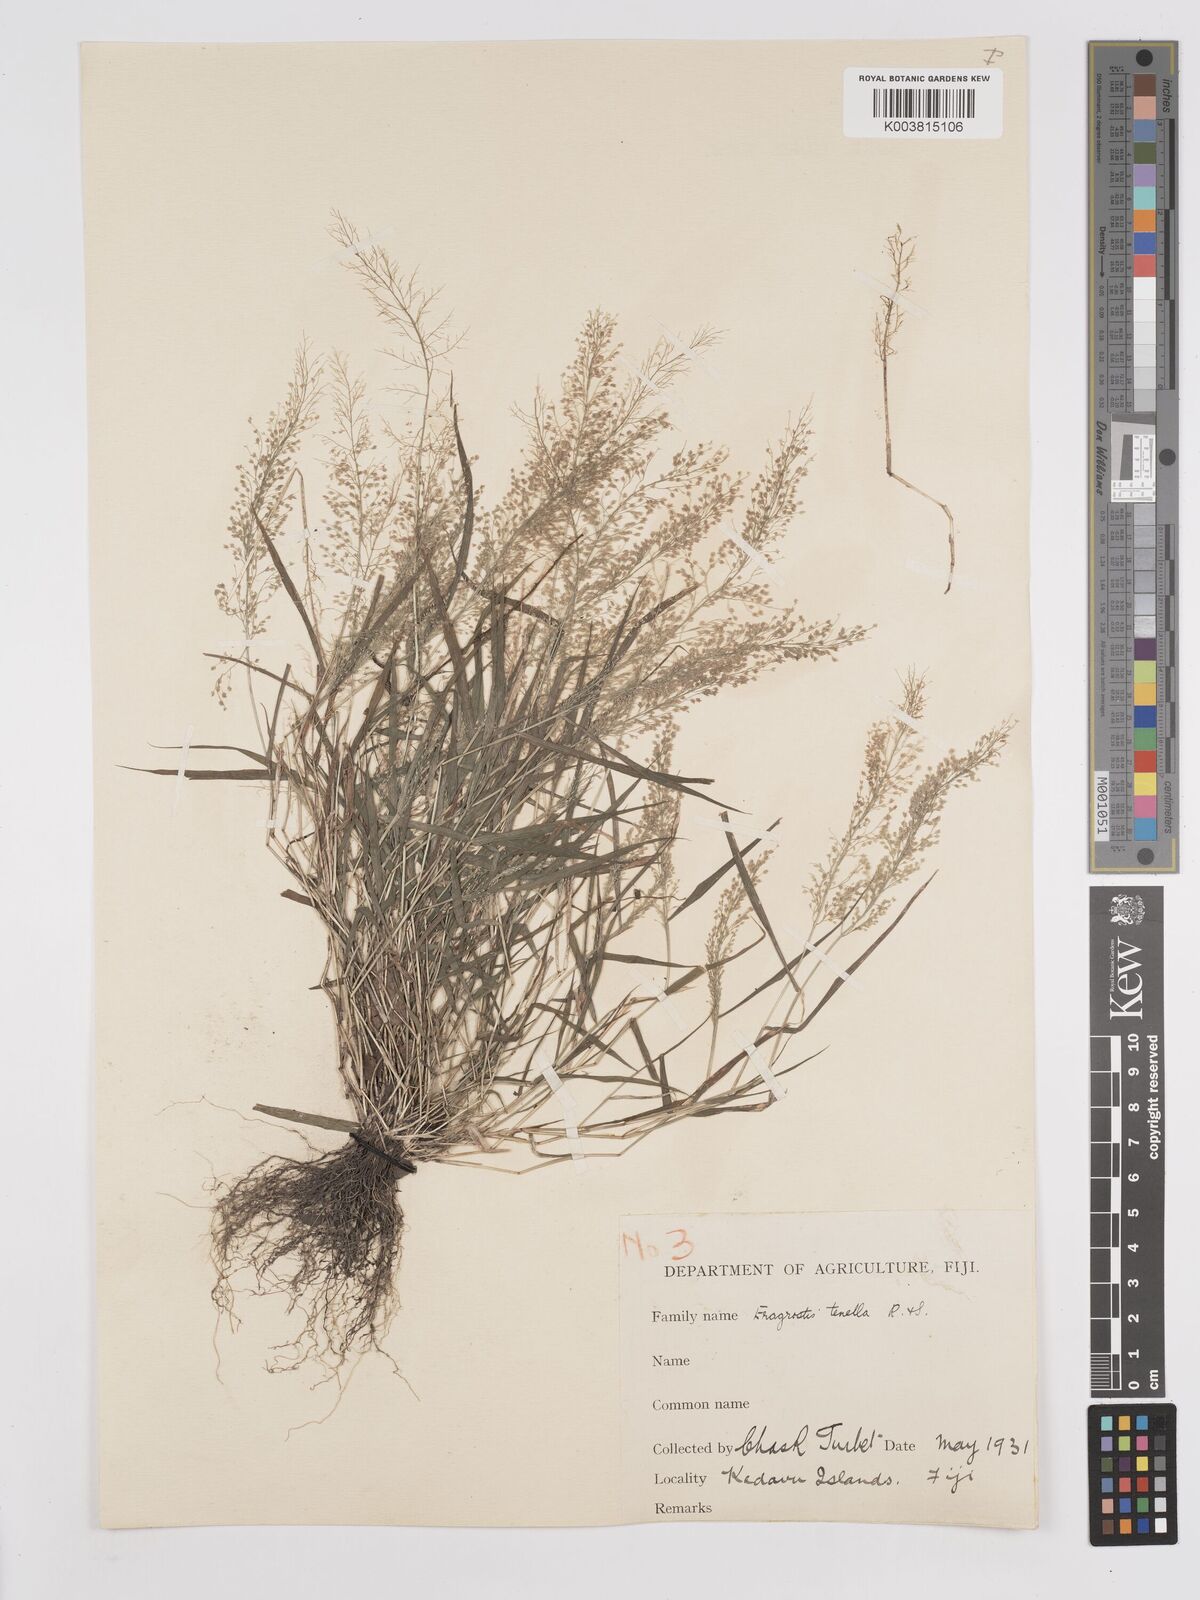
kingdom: Plantae
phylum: Tracheophyta
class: Liliopsida
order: Poales
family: Poaceae
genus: Eragrostis
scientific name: Eragrostis tenella
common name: Japanese lovegrass
